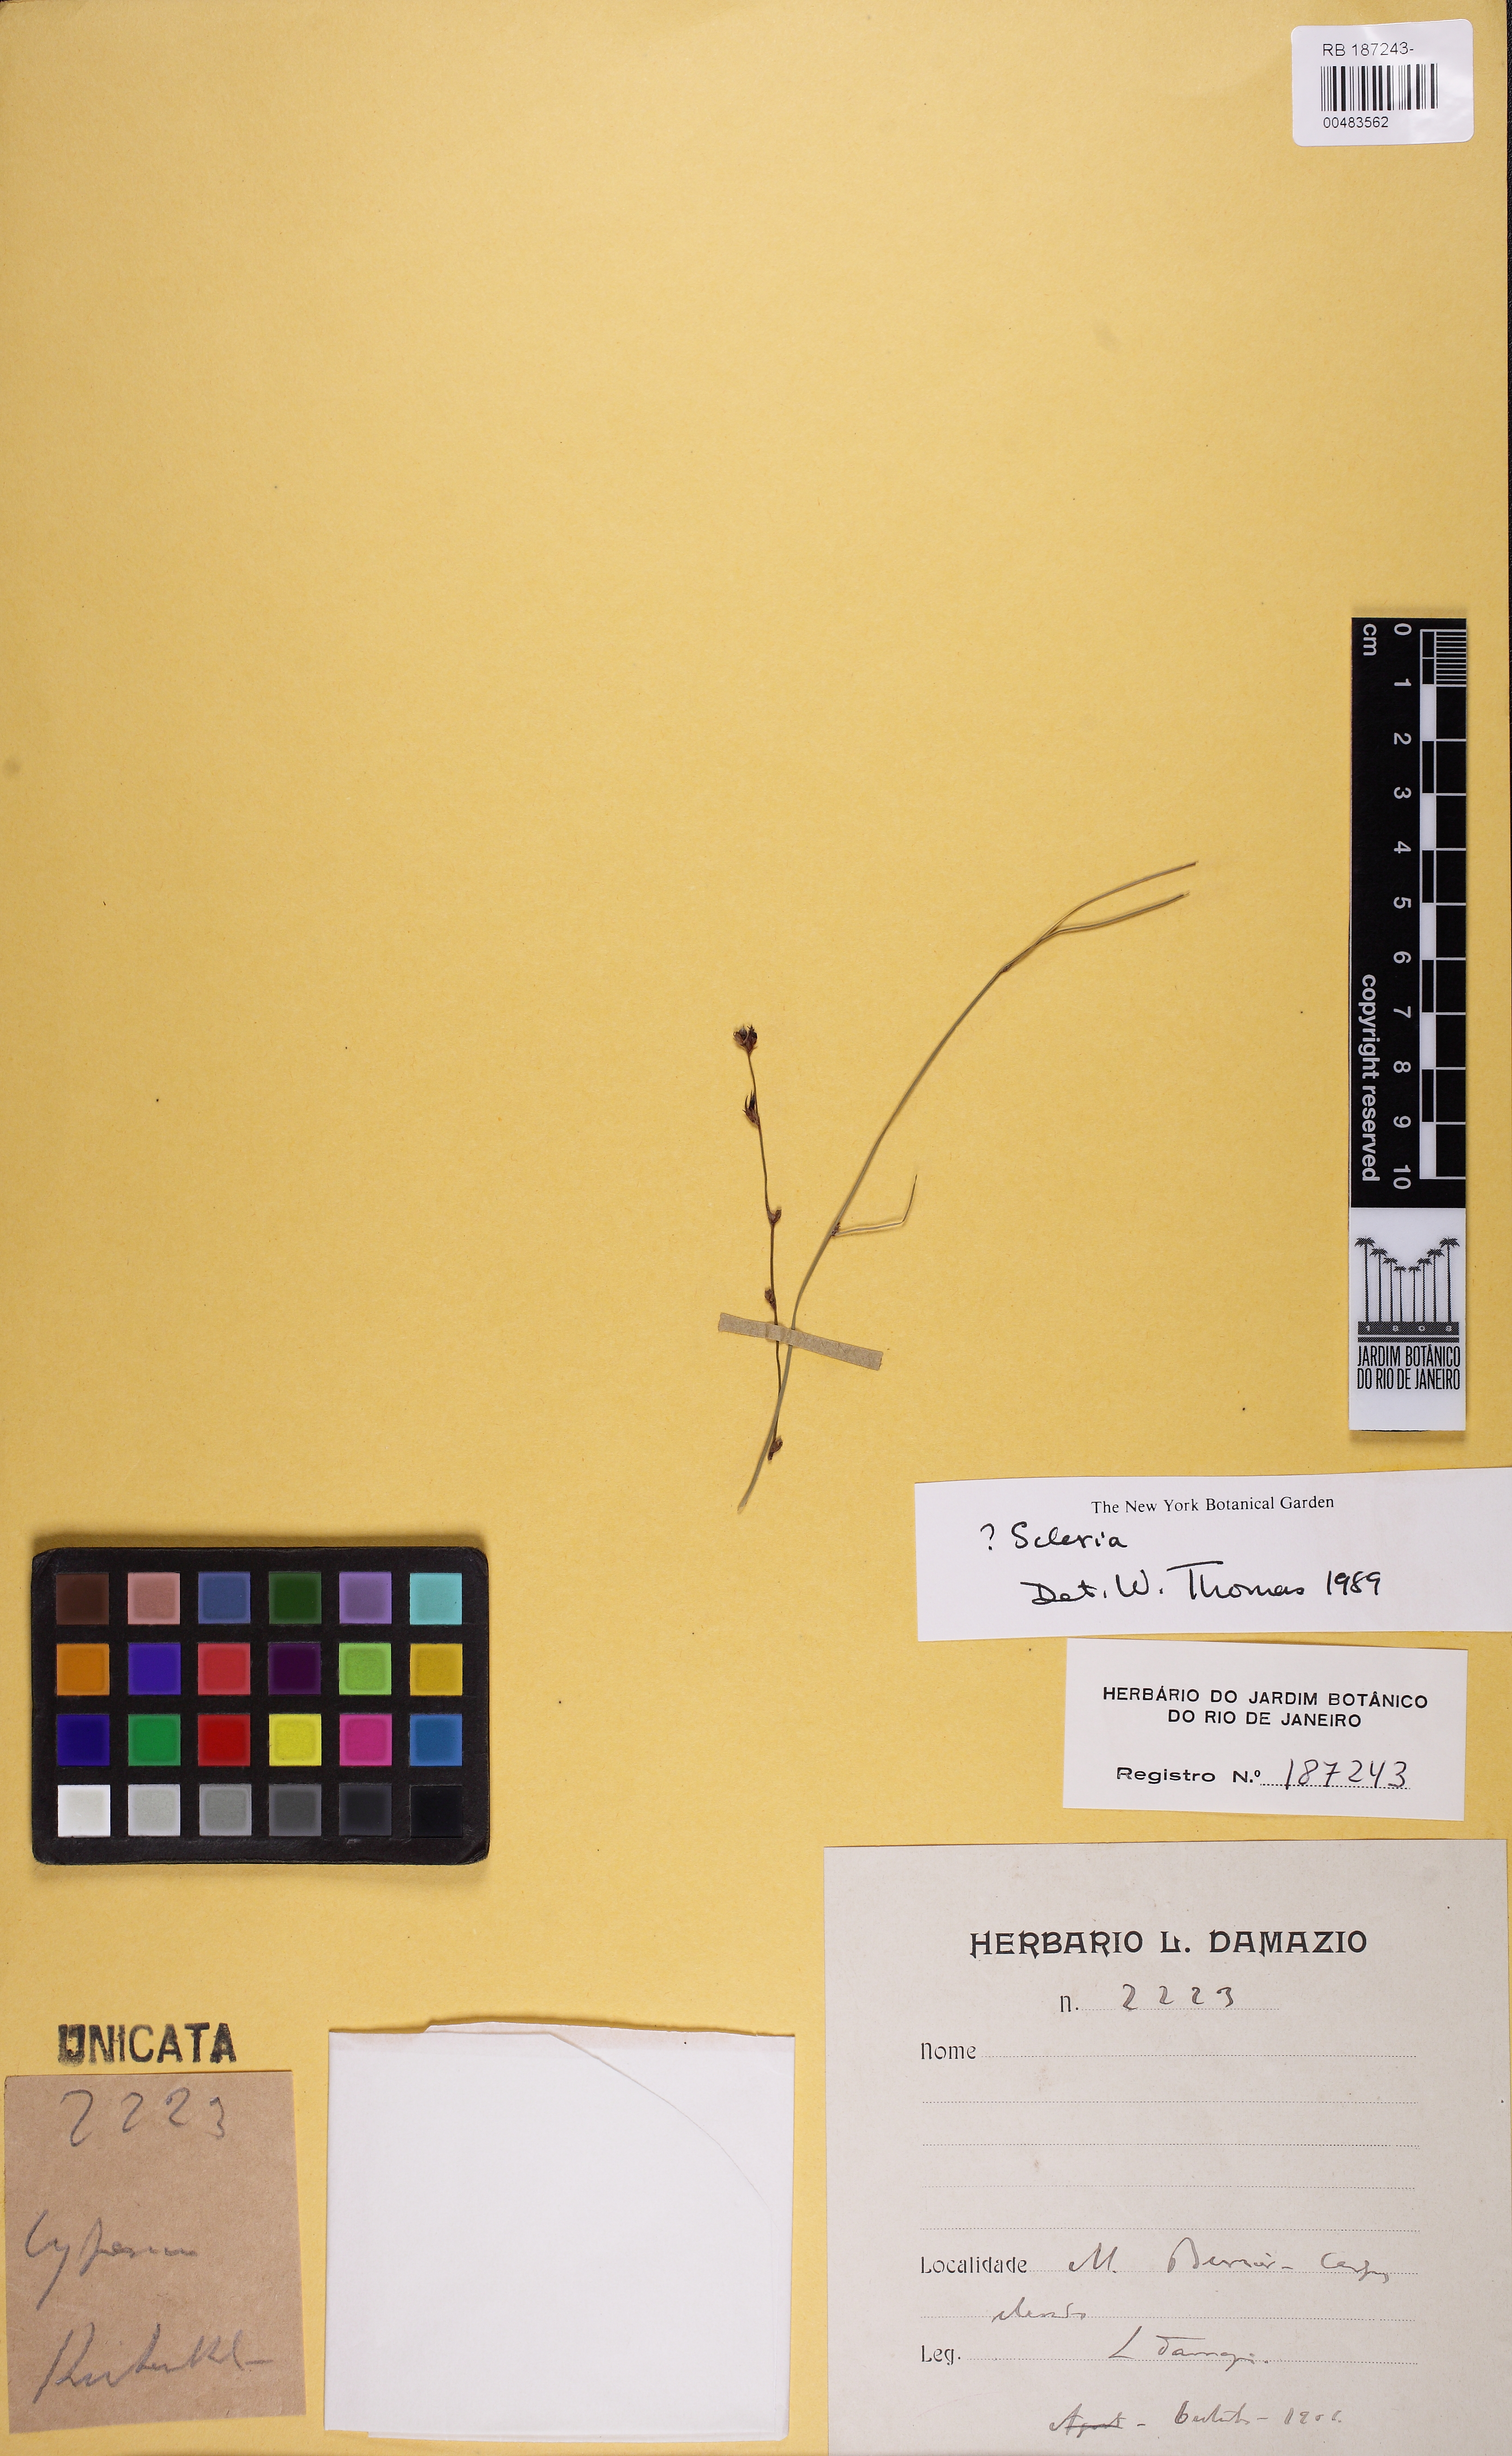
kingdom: Plantae
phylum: Tracheophyta
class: Liliopsida
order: Poales
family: Cyperaceae
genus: Scleria
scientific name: Scleria
